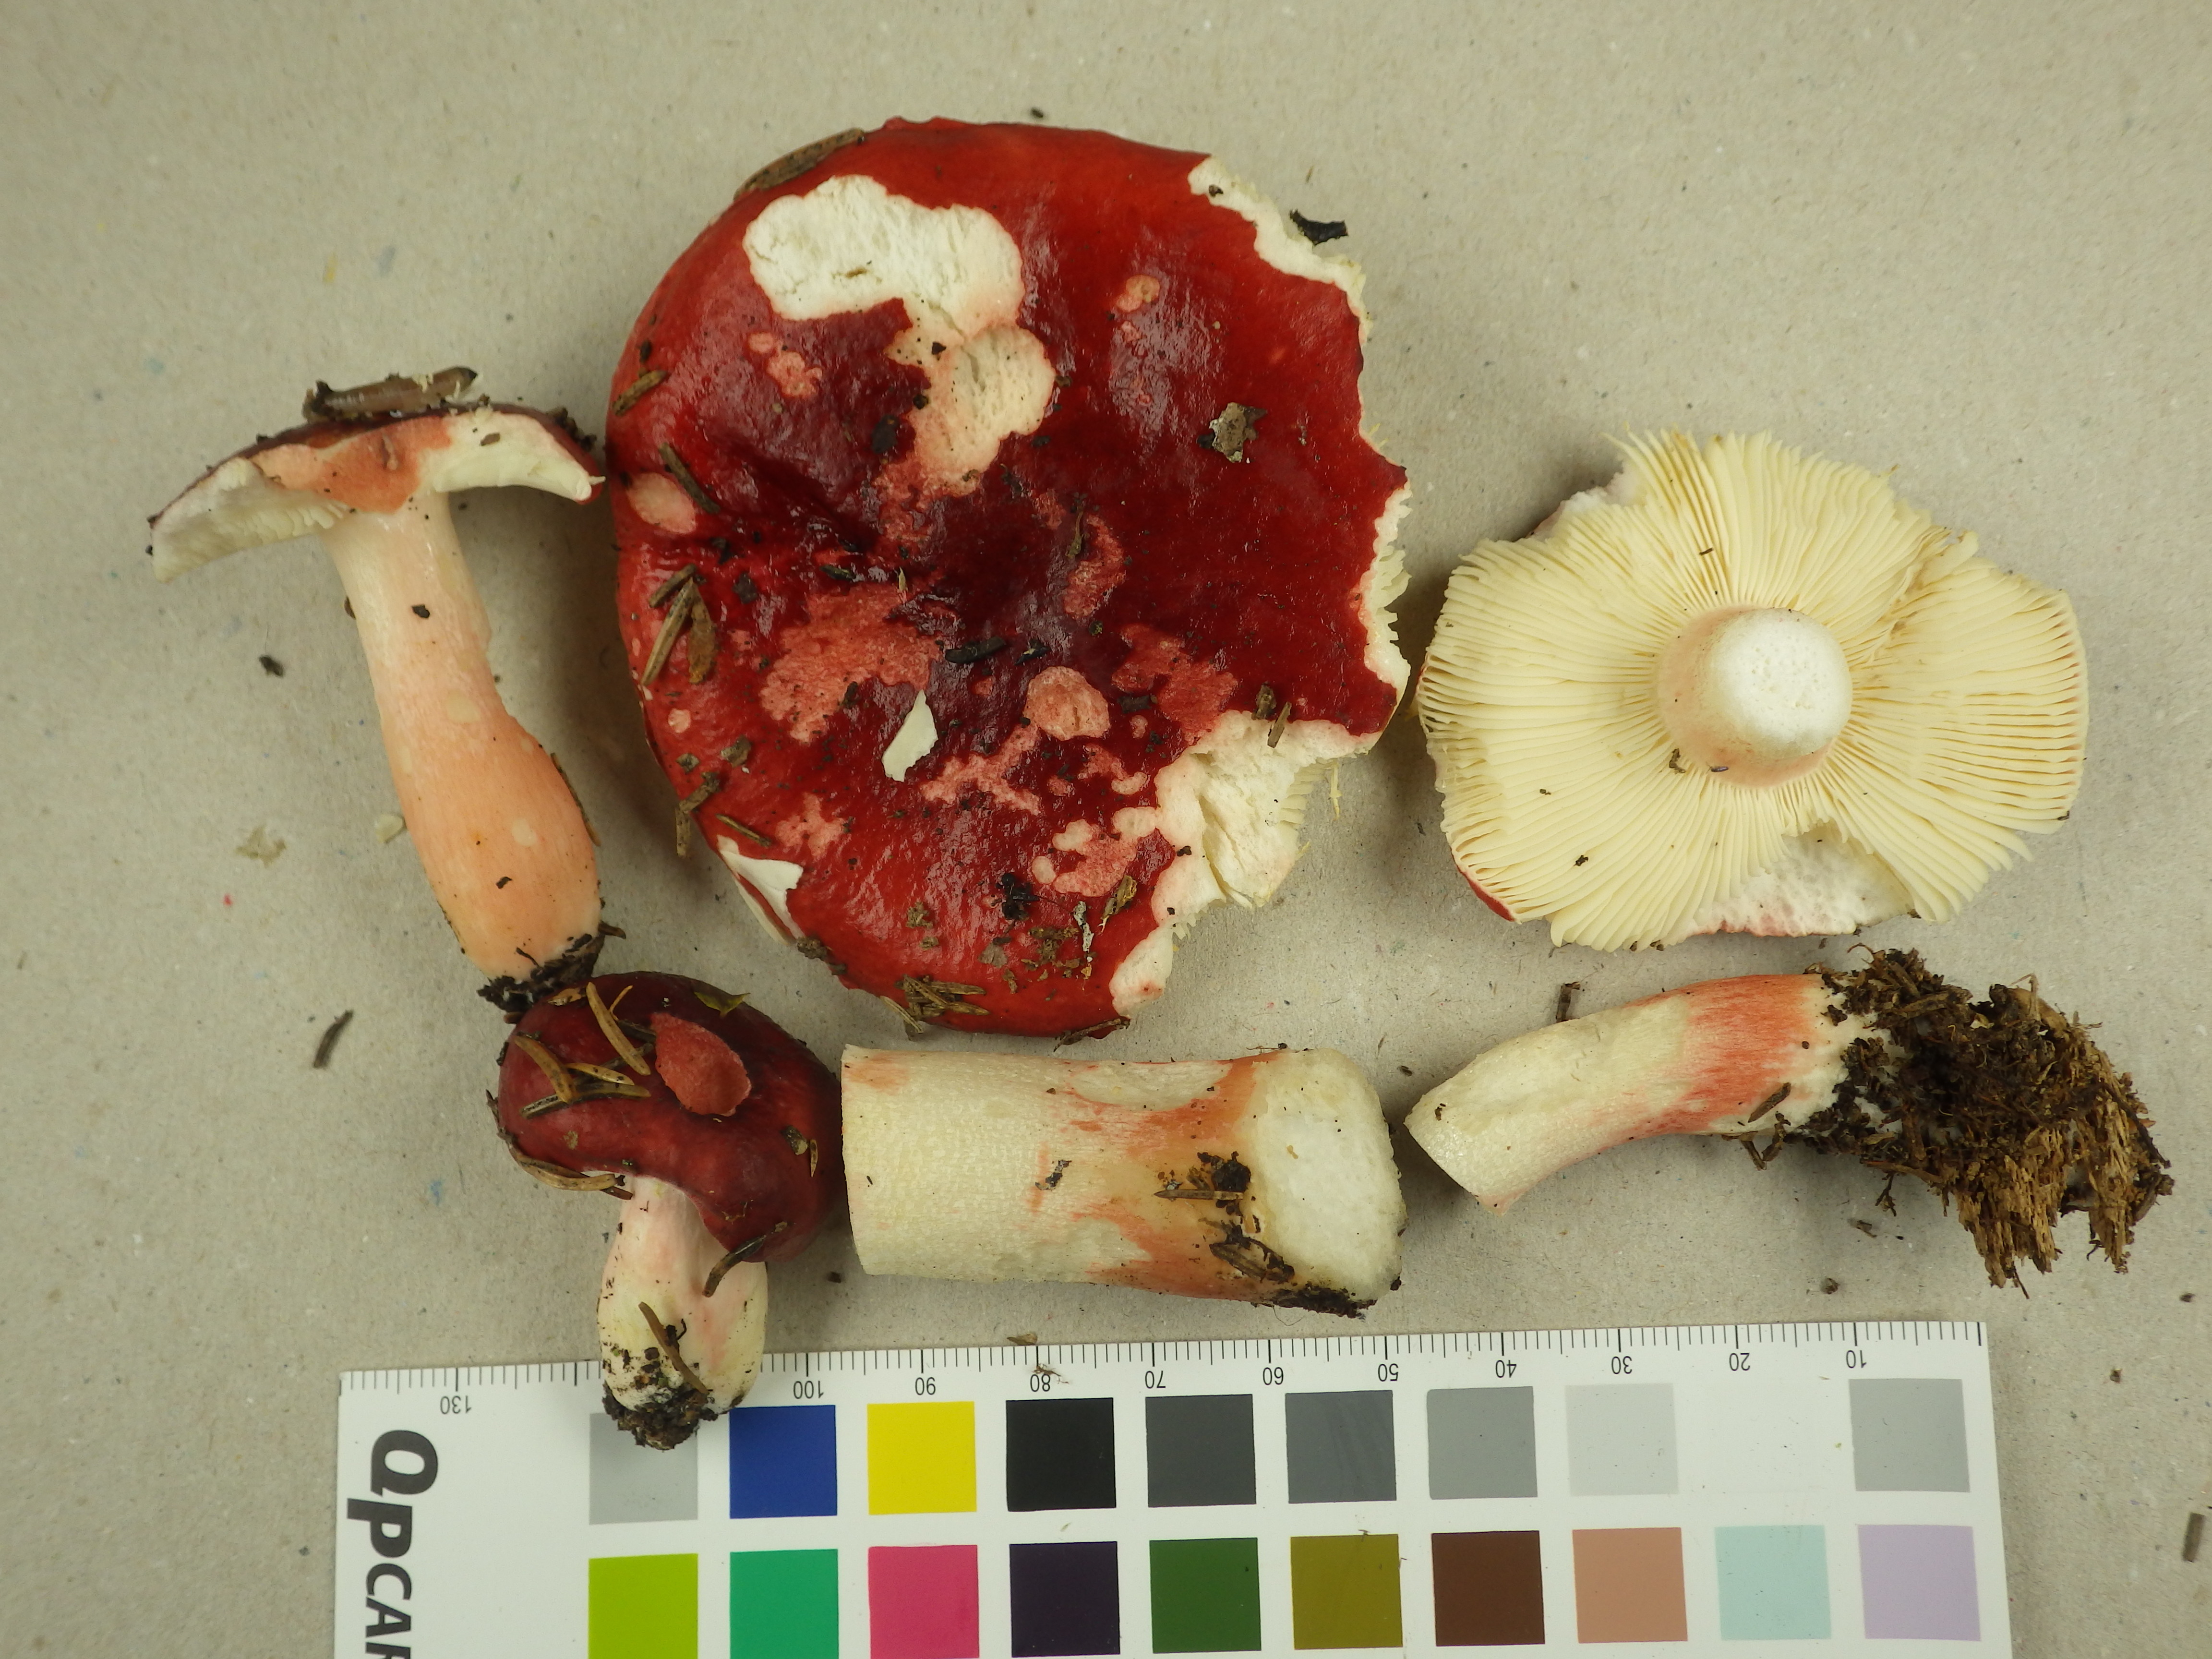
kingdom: Fungi
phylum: Basidiomycota
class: Agaricomycetes
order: Russulales
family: Russulaceae
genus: Russula
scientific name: Russula rhodopus
